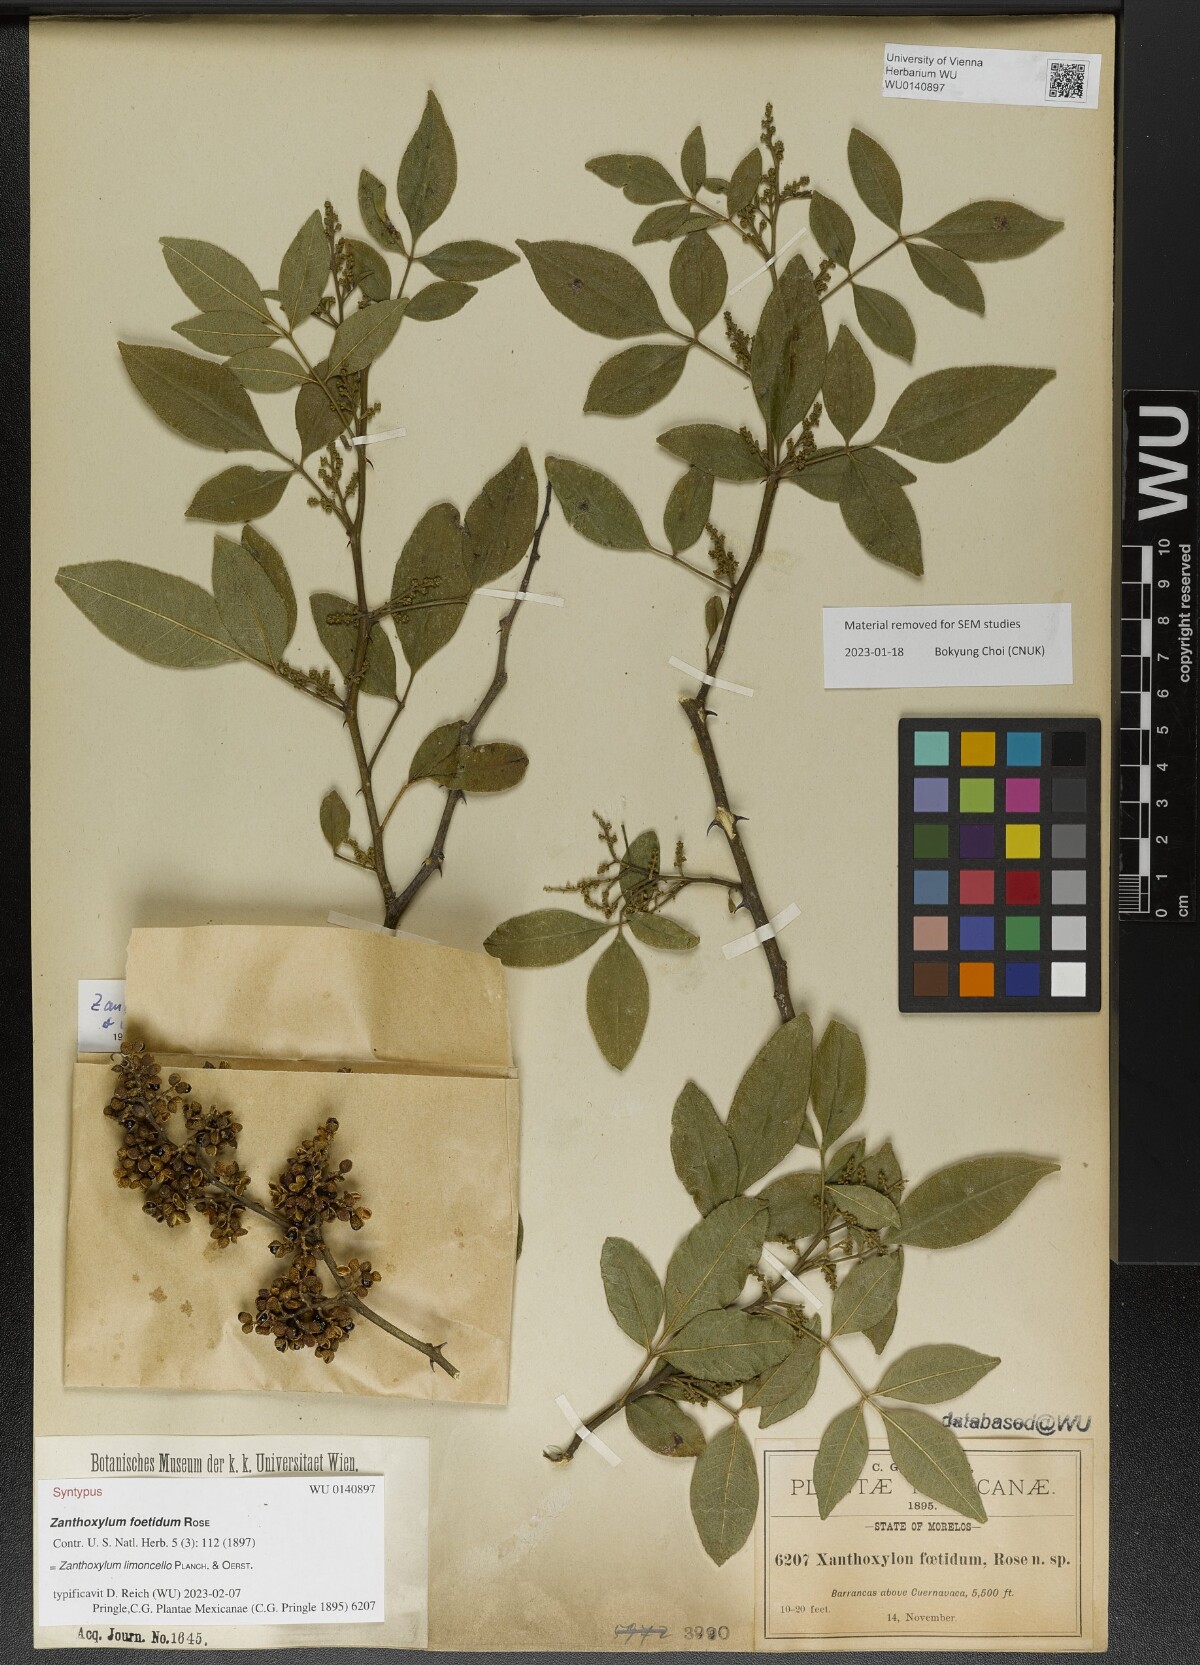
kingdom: Plantae
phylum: Tracheophyta
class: Magnoliopsida
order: Sapindales
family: Rutaceae
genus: Zanthoxylum
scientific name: Zanthoxylum limoncello
